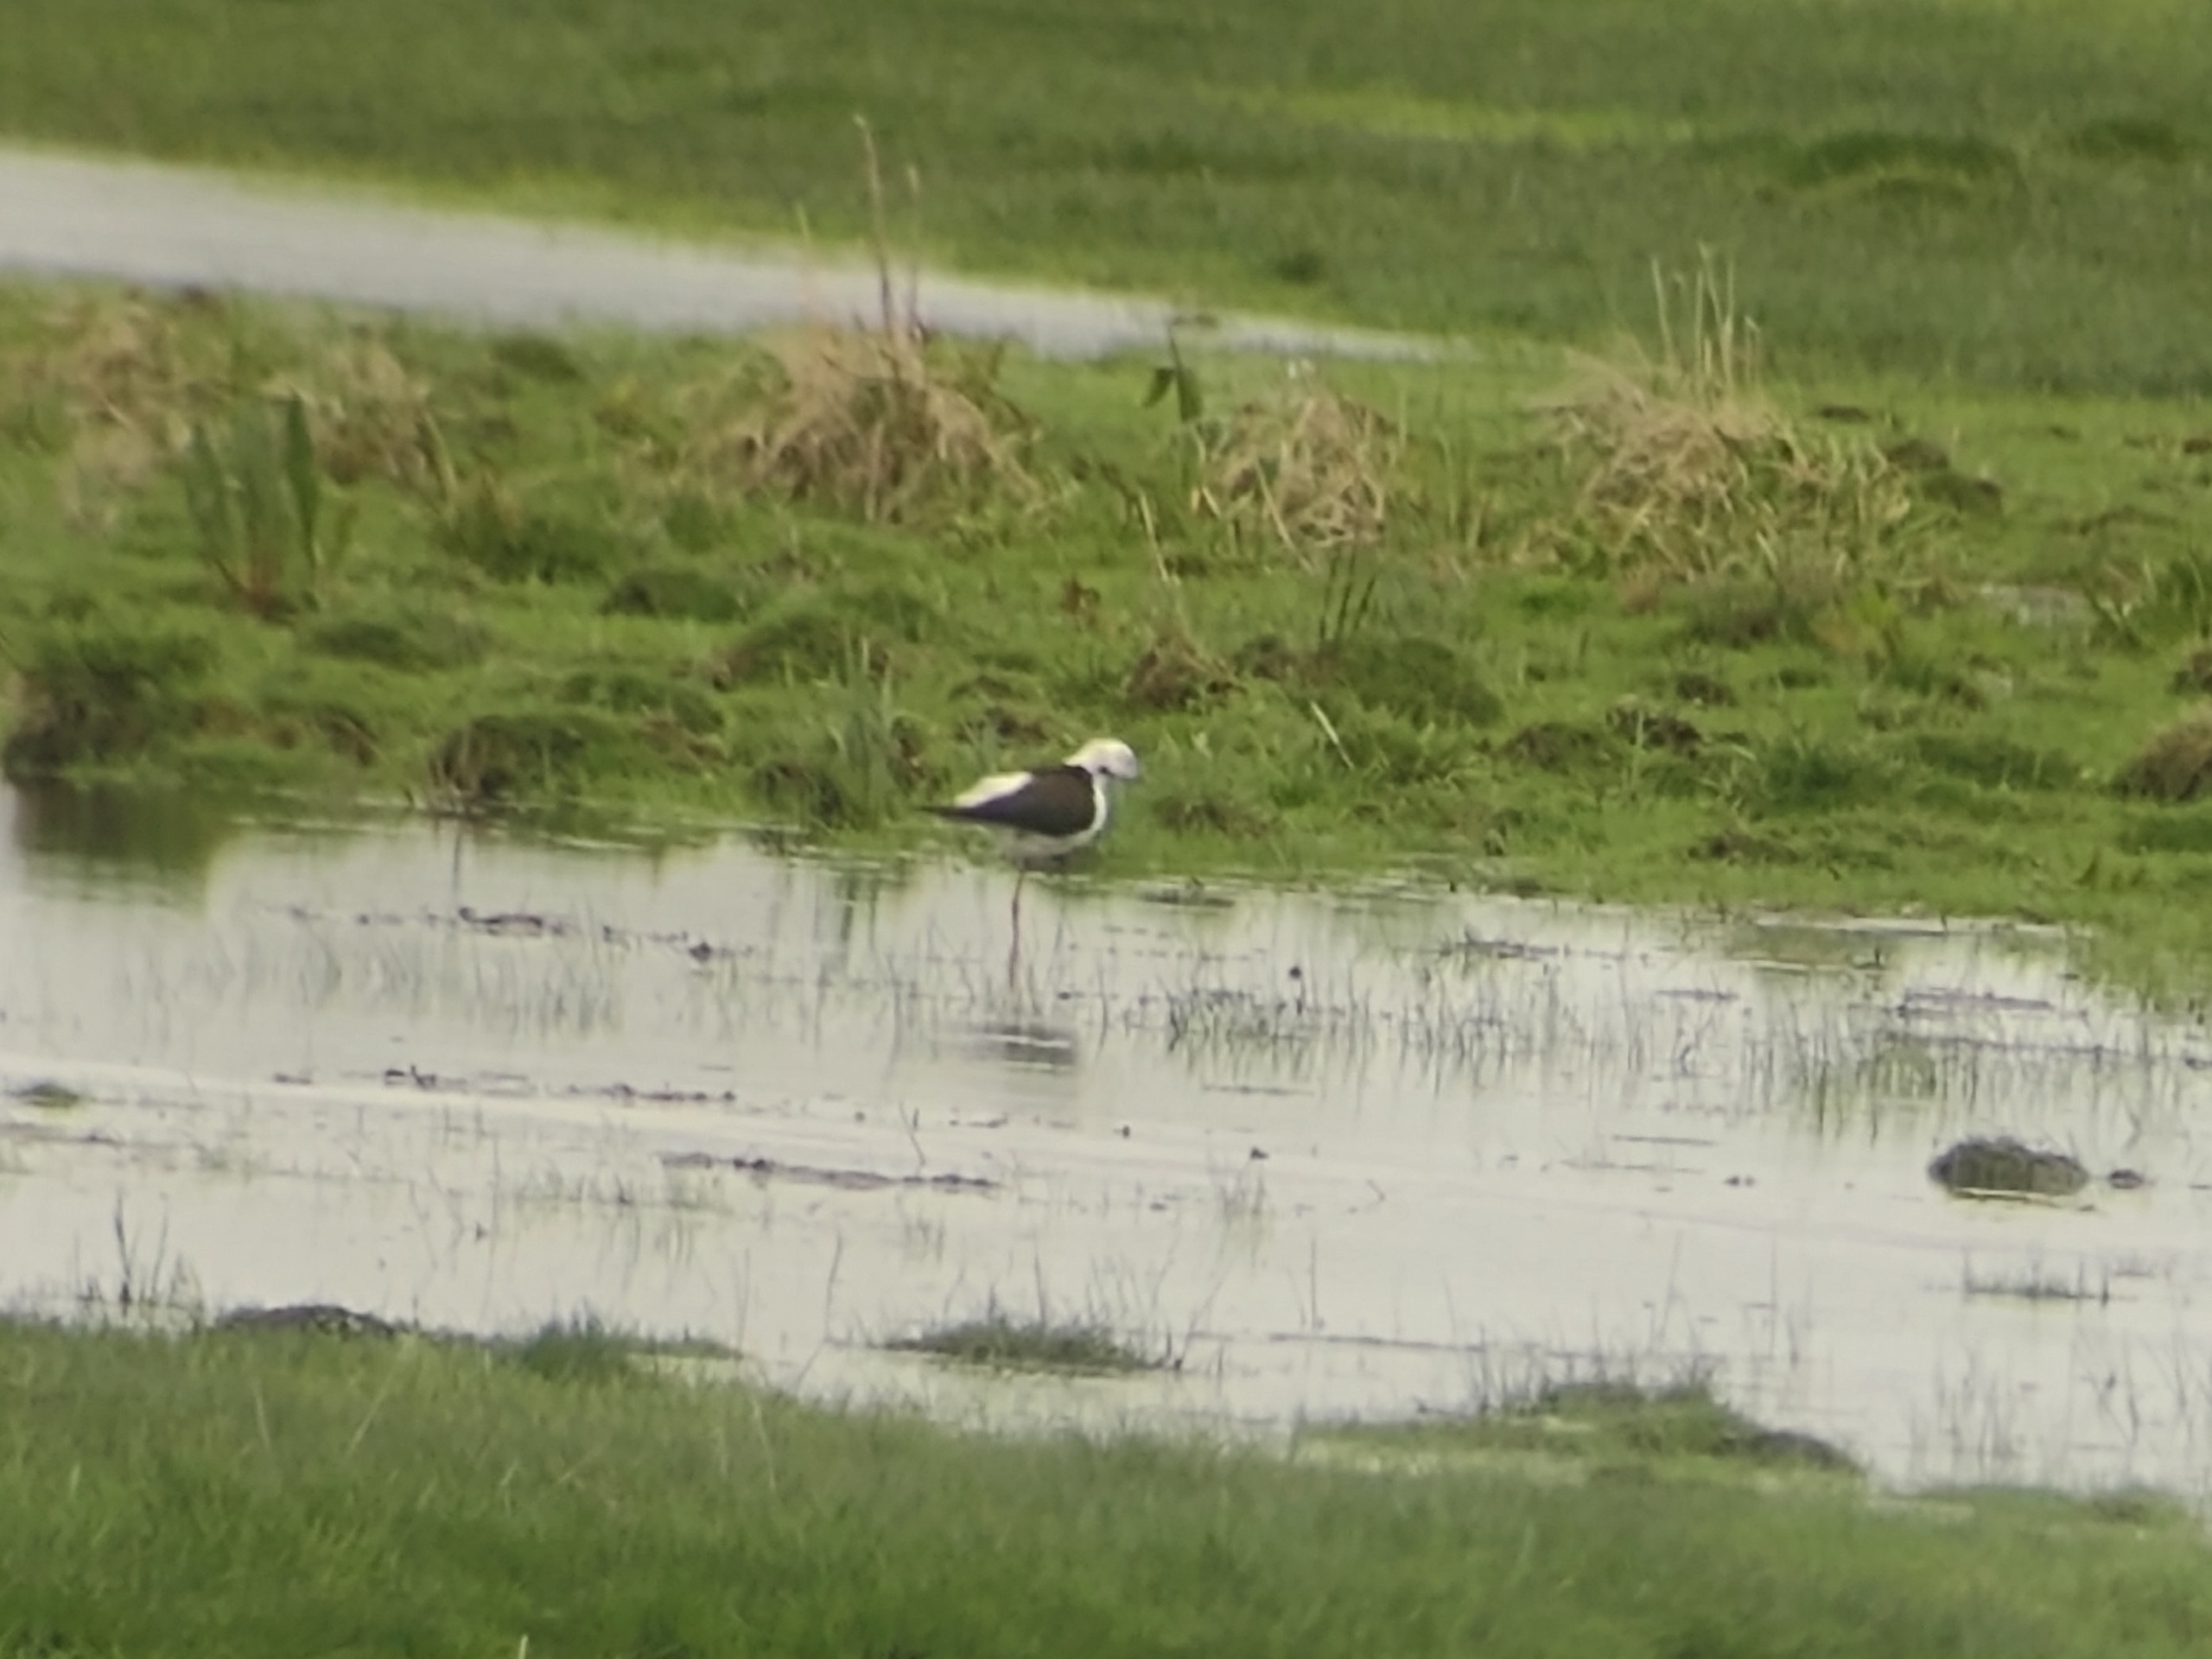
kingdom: Animalia
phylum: Chordata
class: Aves
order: Charadriiformes
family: Recurvirostridae
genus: Himantopus
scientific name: Himantopus himantopus
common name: Stylteløber
